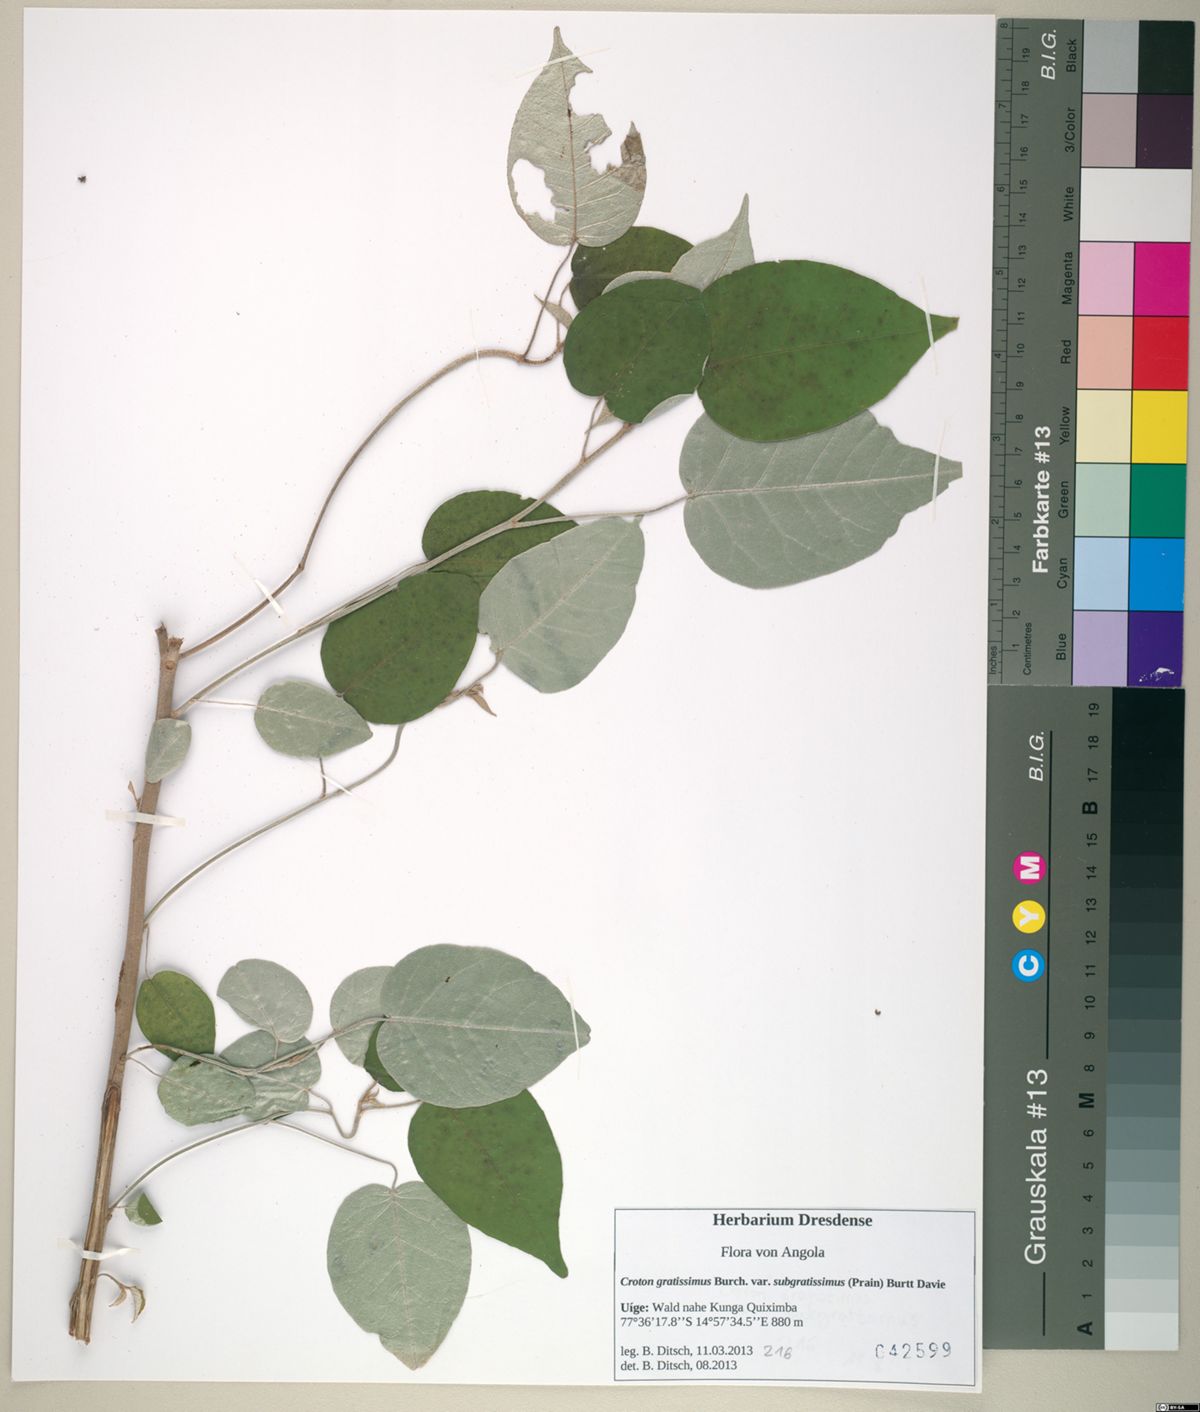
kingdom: Plantae
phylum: Tracheophyta
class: Magnoliopsida
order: Malpighiales
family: Euphorbiaceae
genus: Croton
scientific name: Croton gratissimus
